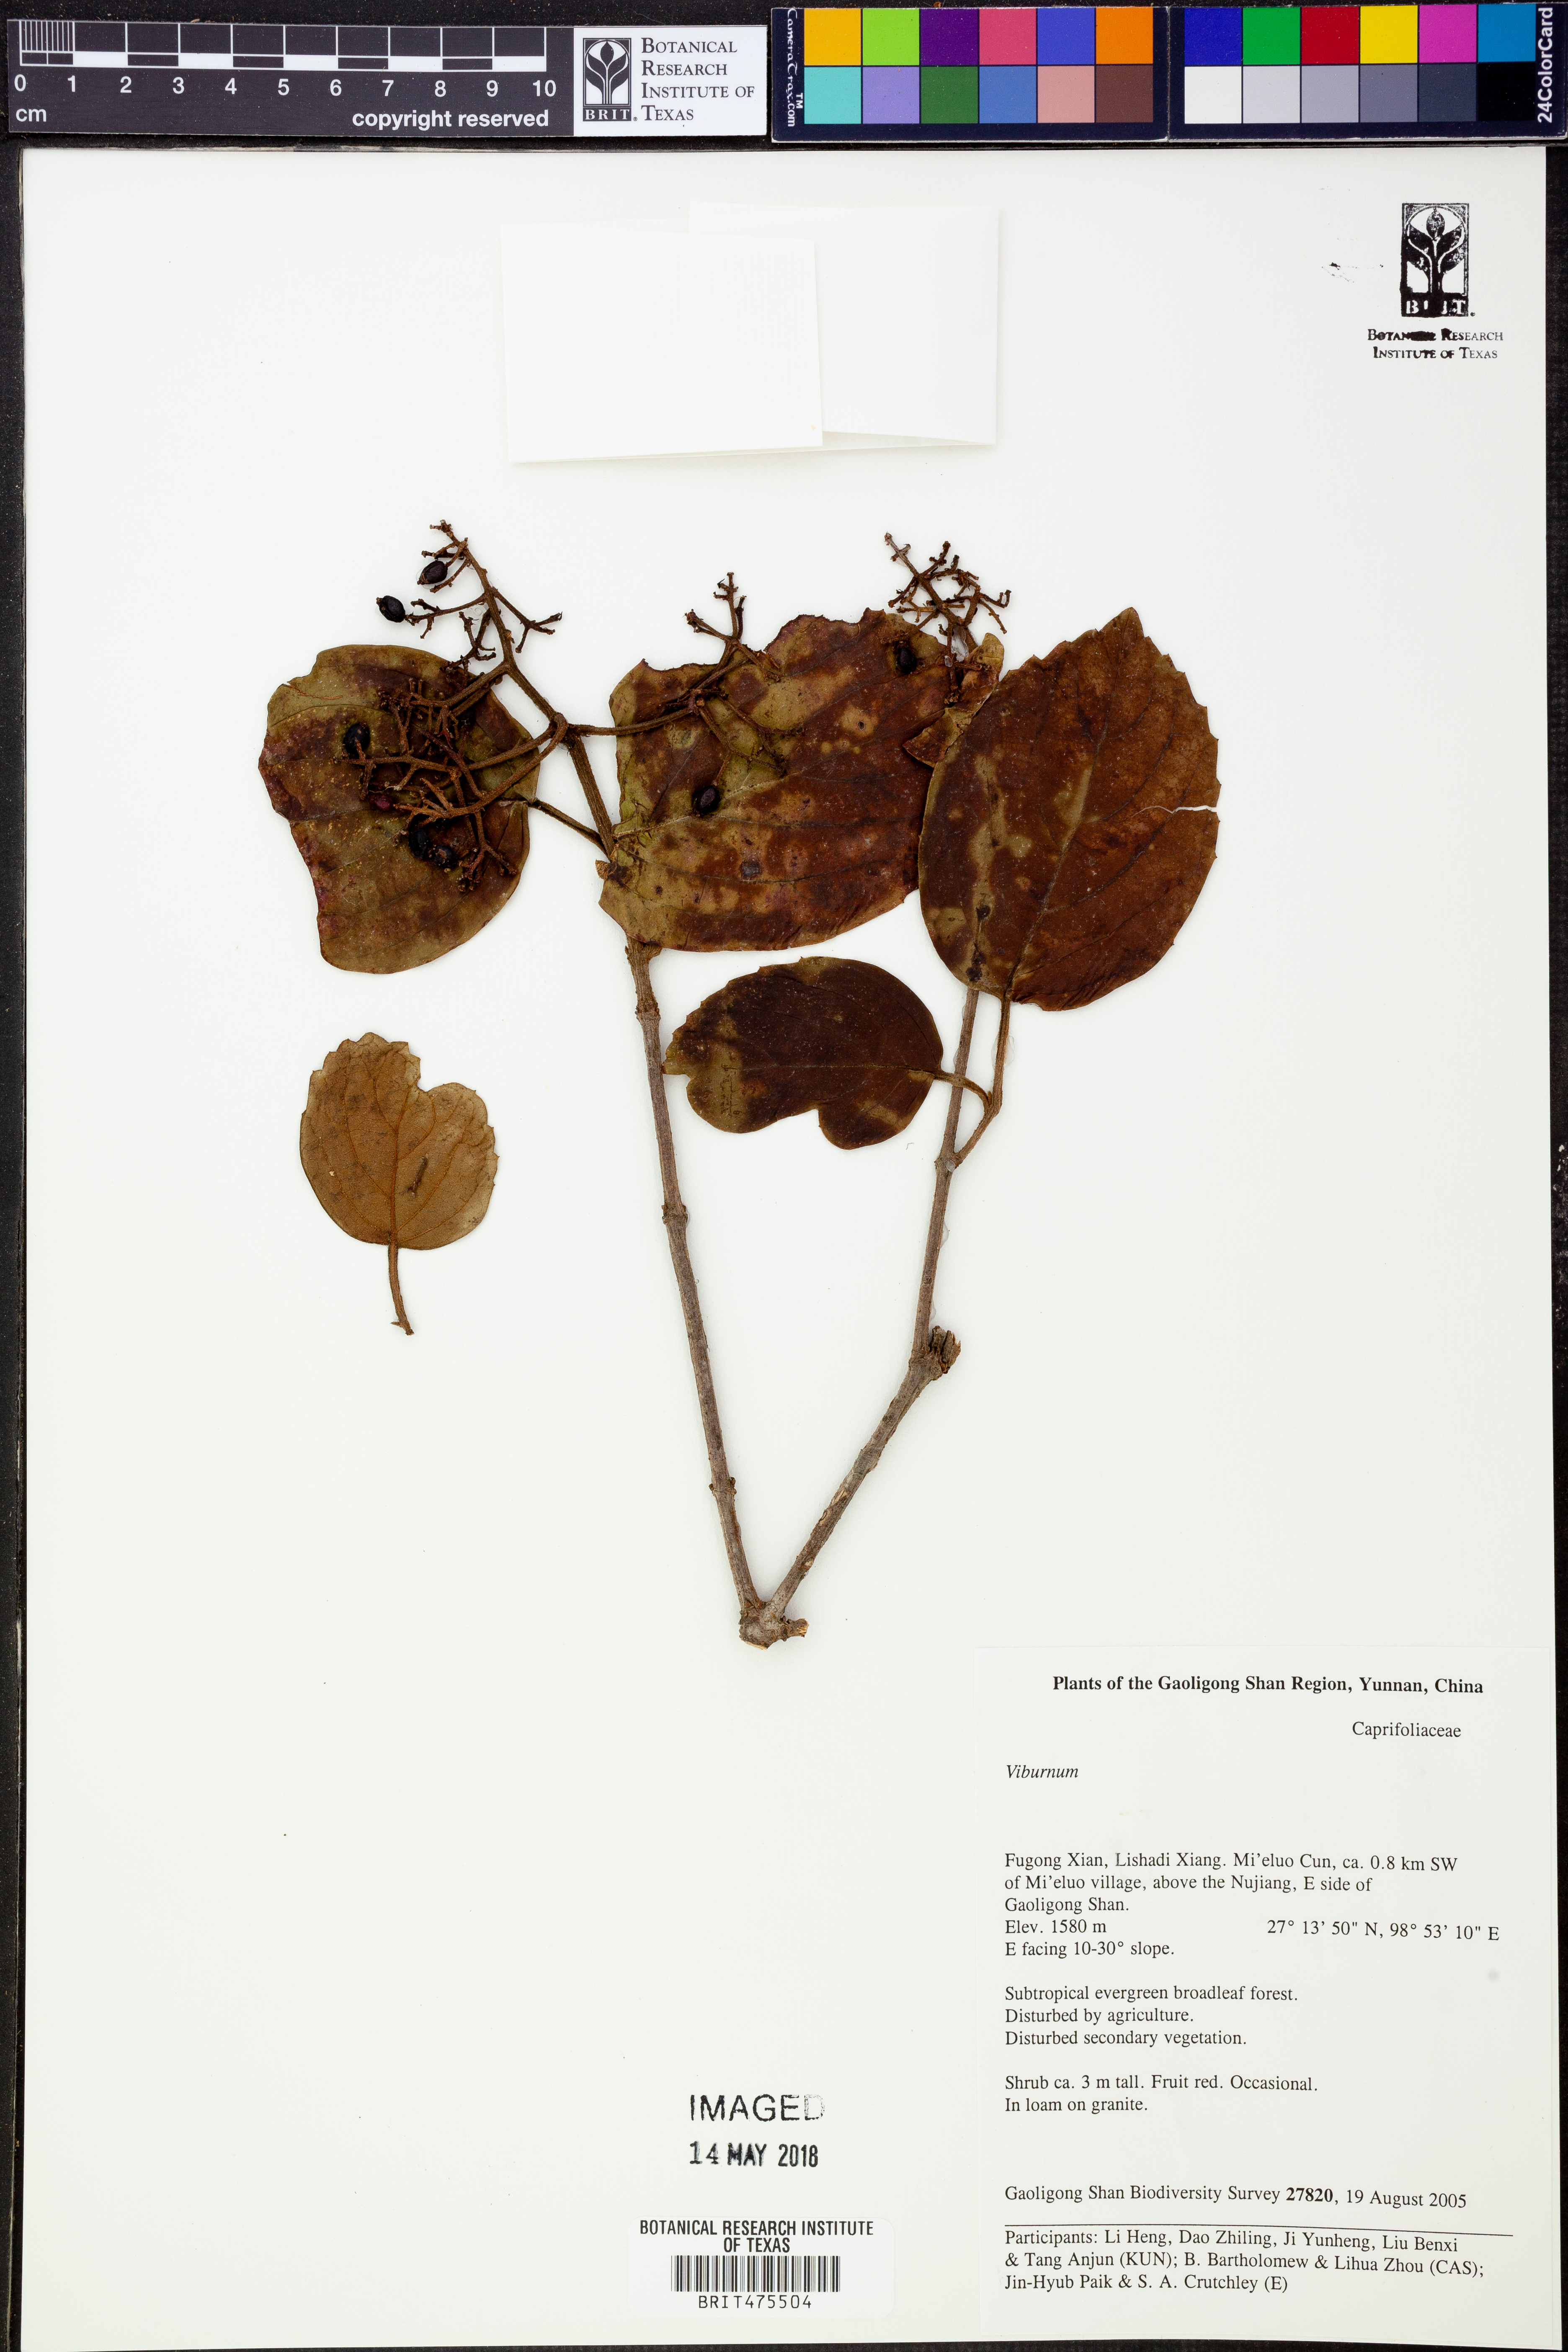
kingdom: Plantae
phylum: Tracheophyta
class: Magnoliopsida
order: Dipsacales
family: Viburnaceae
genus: Viburnum
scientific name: Viburnum
